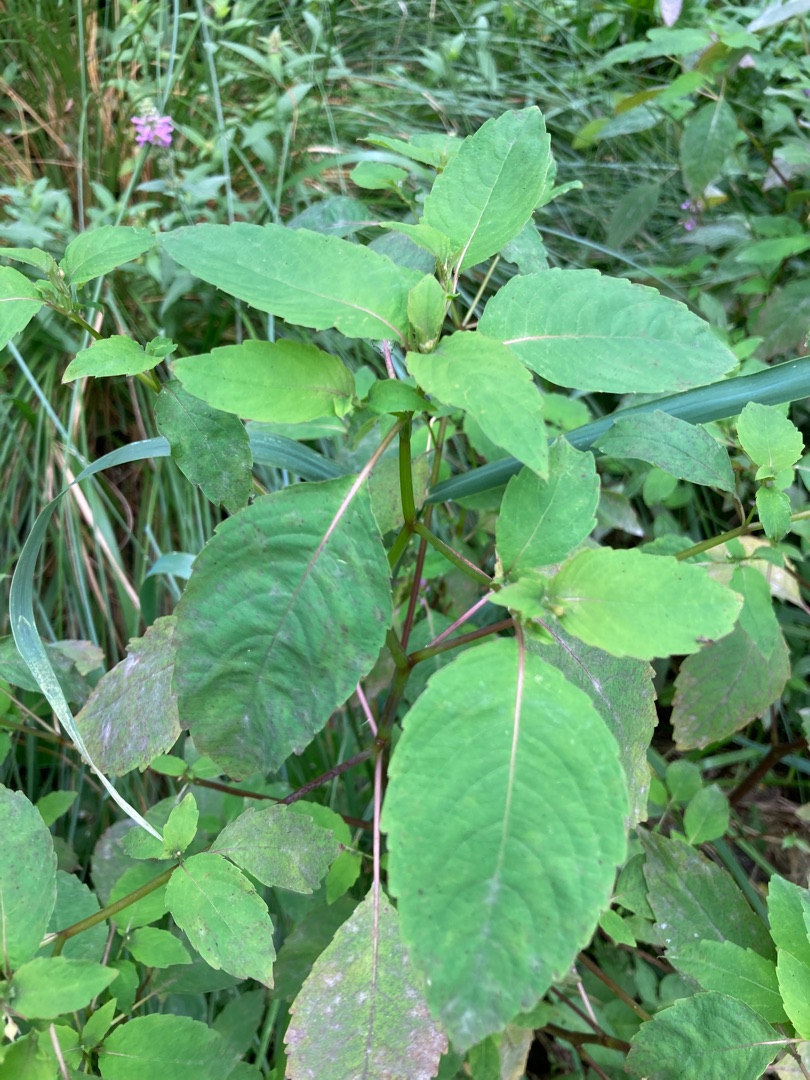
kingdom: Plantae
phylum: Tracheophyta
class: Magnoliopsida
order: Ericales
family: Balsaminaceae
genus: Impatiens
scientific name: Impatiens noli-tangere
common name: Spring-balsamin
